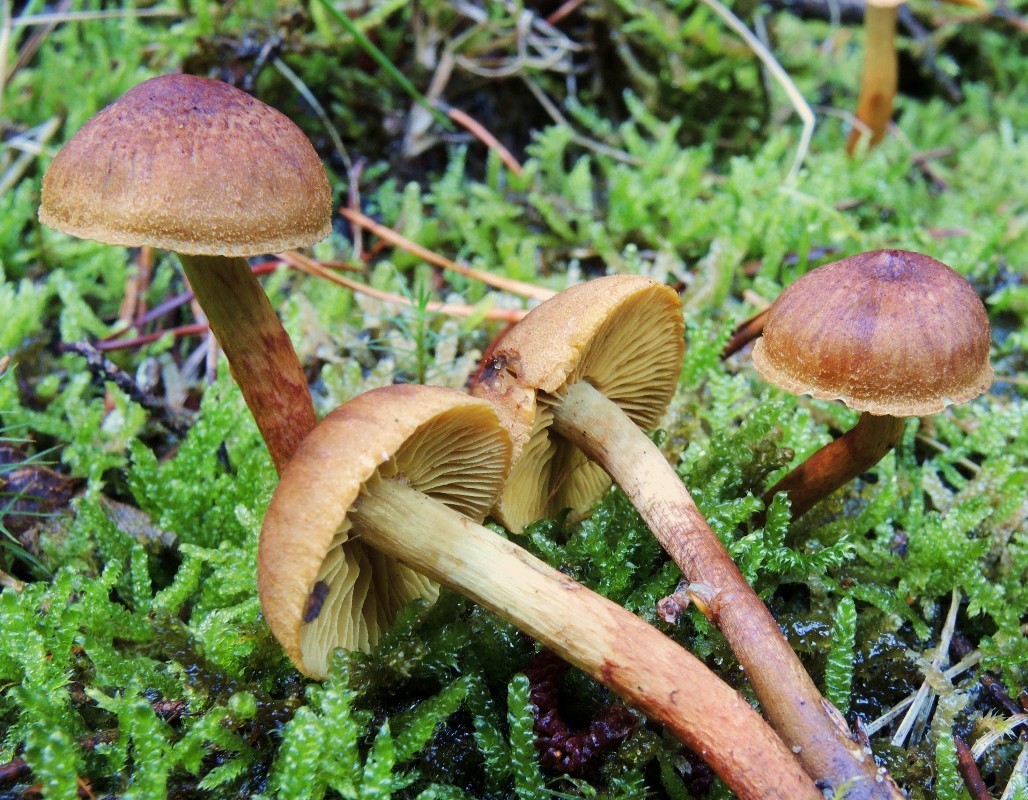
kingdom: Fungi
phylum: Basidiomycota
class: Agaricomycetes
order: Agaricales
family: Cortinariaceae
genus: Cortinarius
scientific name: Cortinarius
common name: gulbladet slørhat
